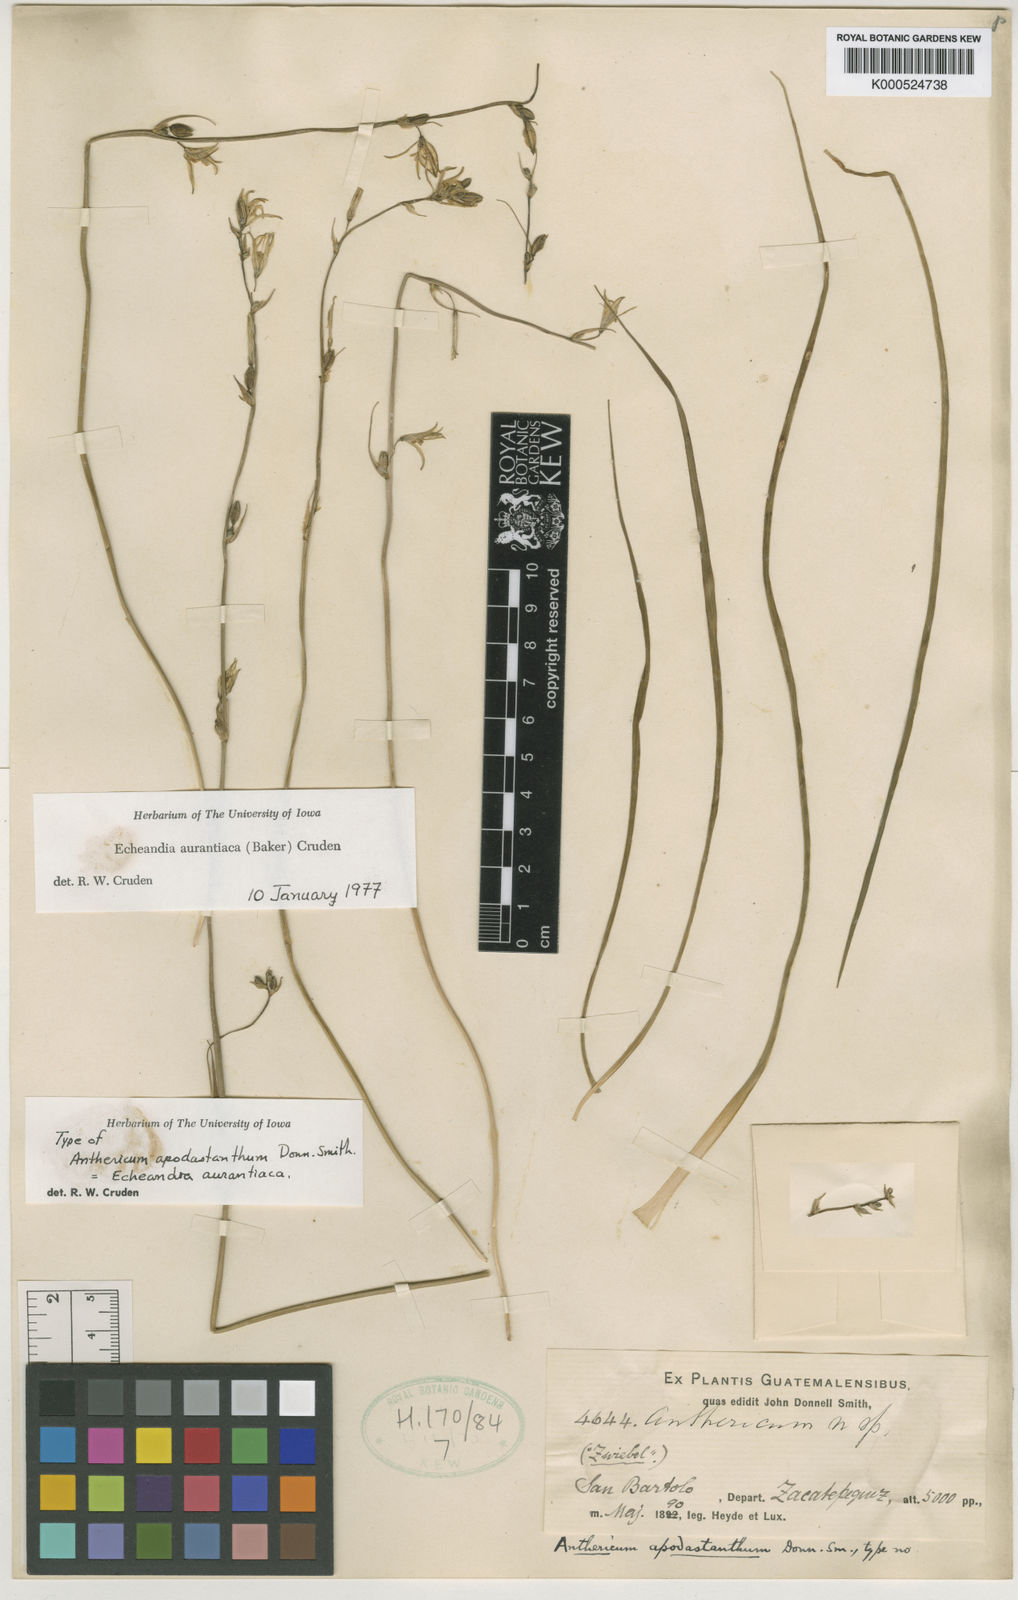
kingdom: Plantae
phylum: Tracheophyta
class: Liliopsida
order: Asparagales
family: Asparagaceae
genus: Echeandia
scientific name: Echeandia skinneri
